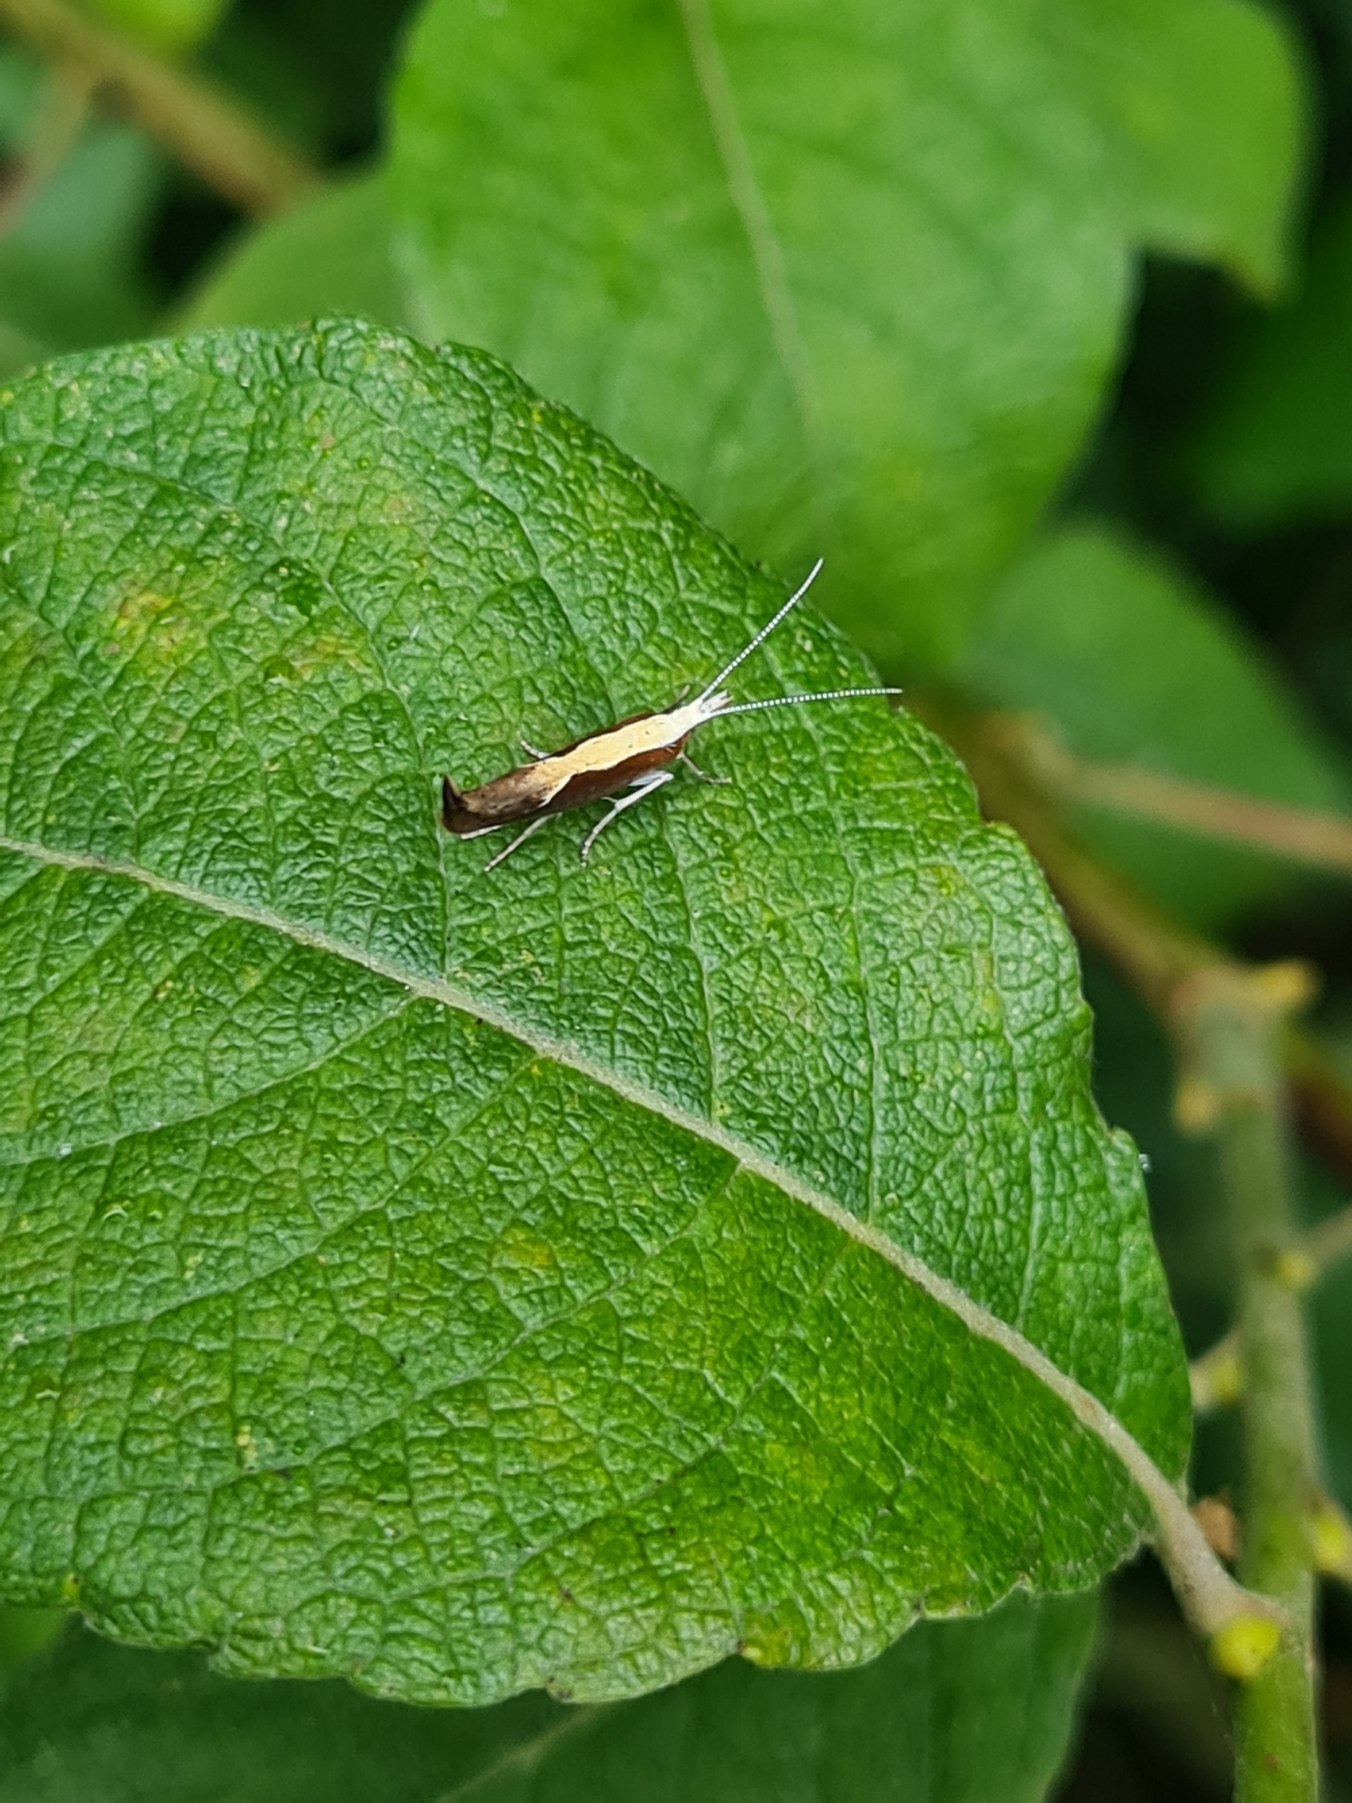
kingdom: Animalia
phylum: Arthropoda
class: Insecta
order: Lepidoptera
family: Ypsolophidae
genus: Ypsolopha
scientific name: Ypsolopha dentella
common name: Snudegedebladmøl
